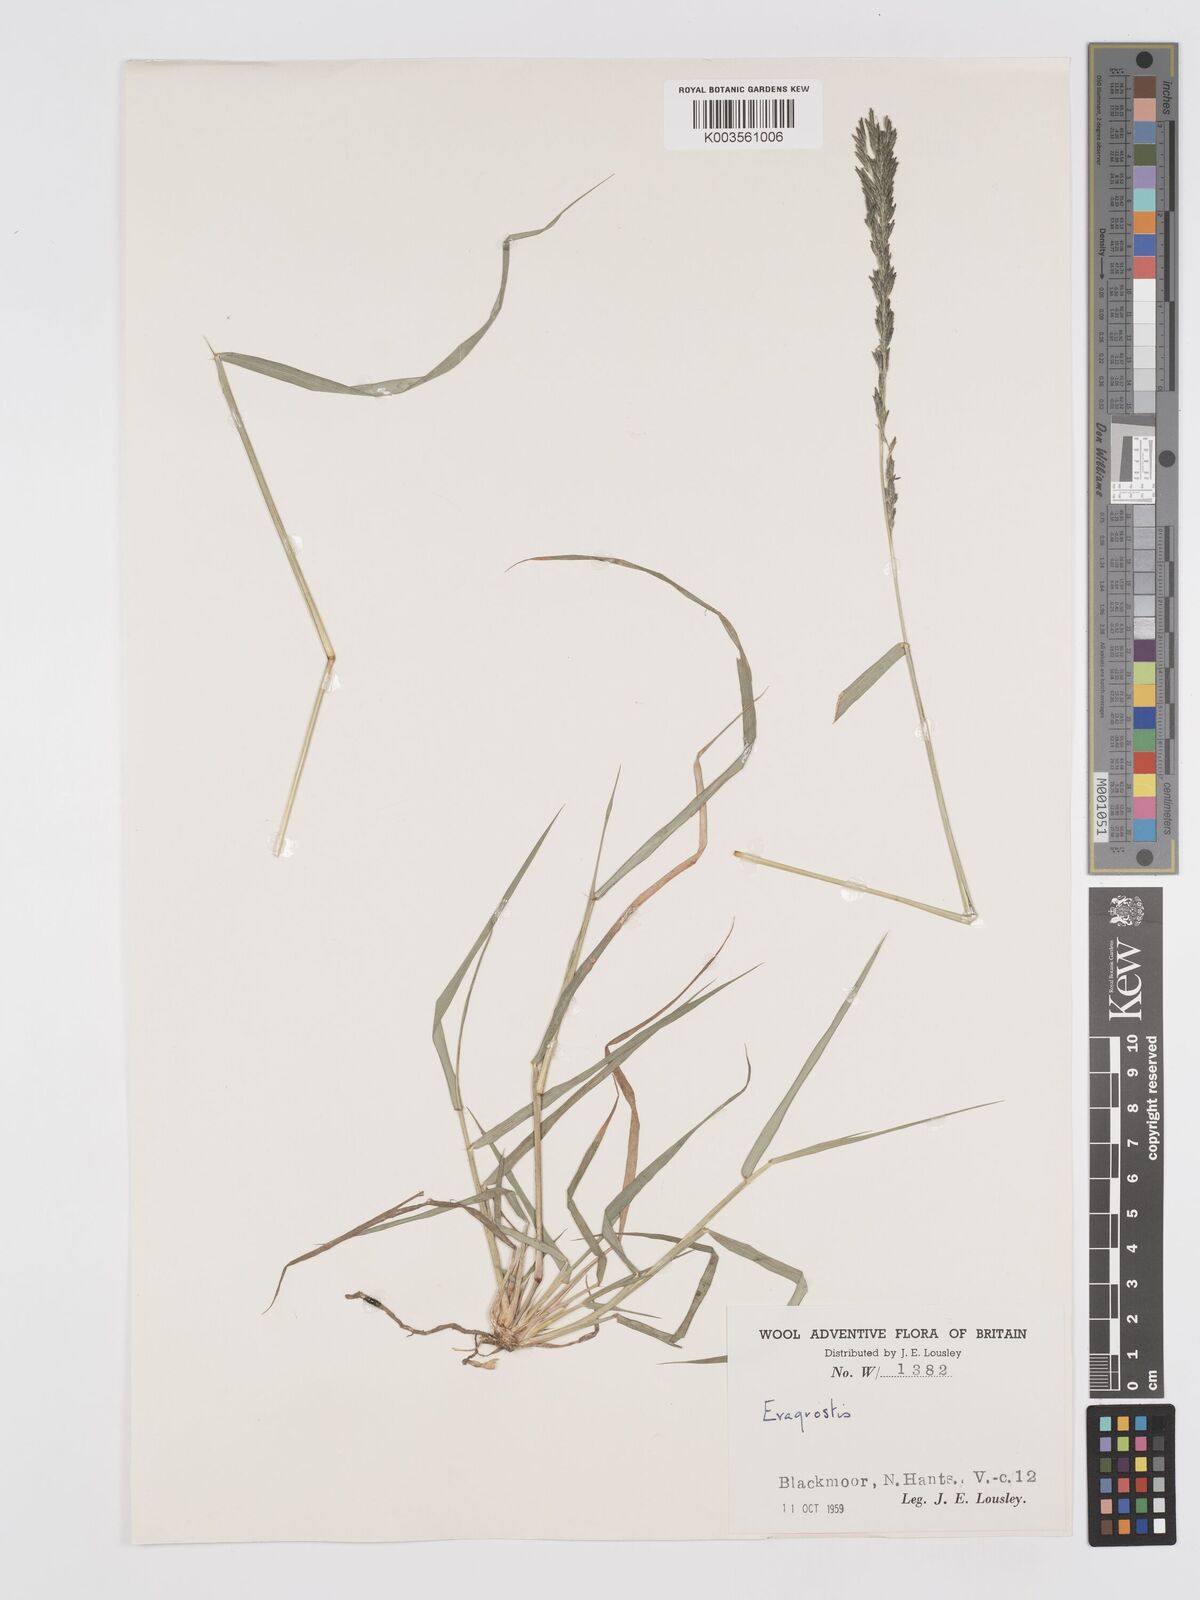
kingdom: Plantae
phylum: Tracheophyta
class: Liliopsida
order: Poales
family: Poaceae
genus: Eragrostis
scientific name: Eragrostis
